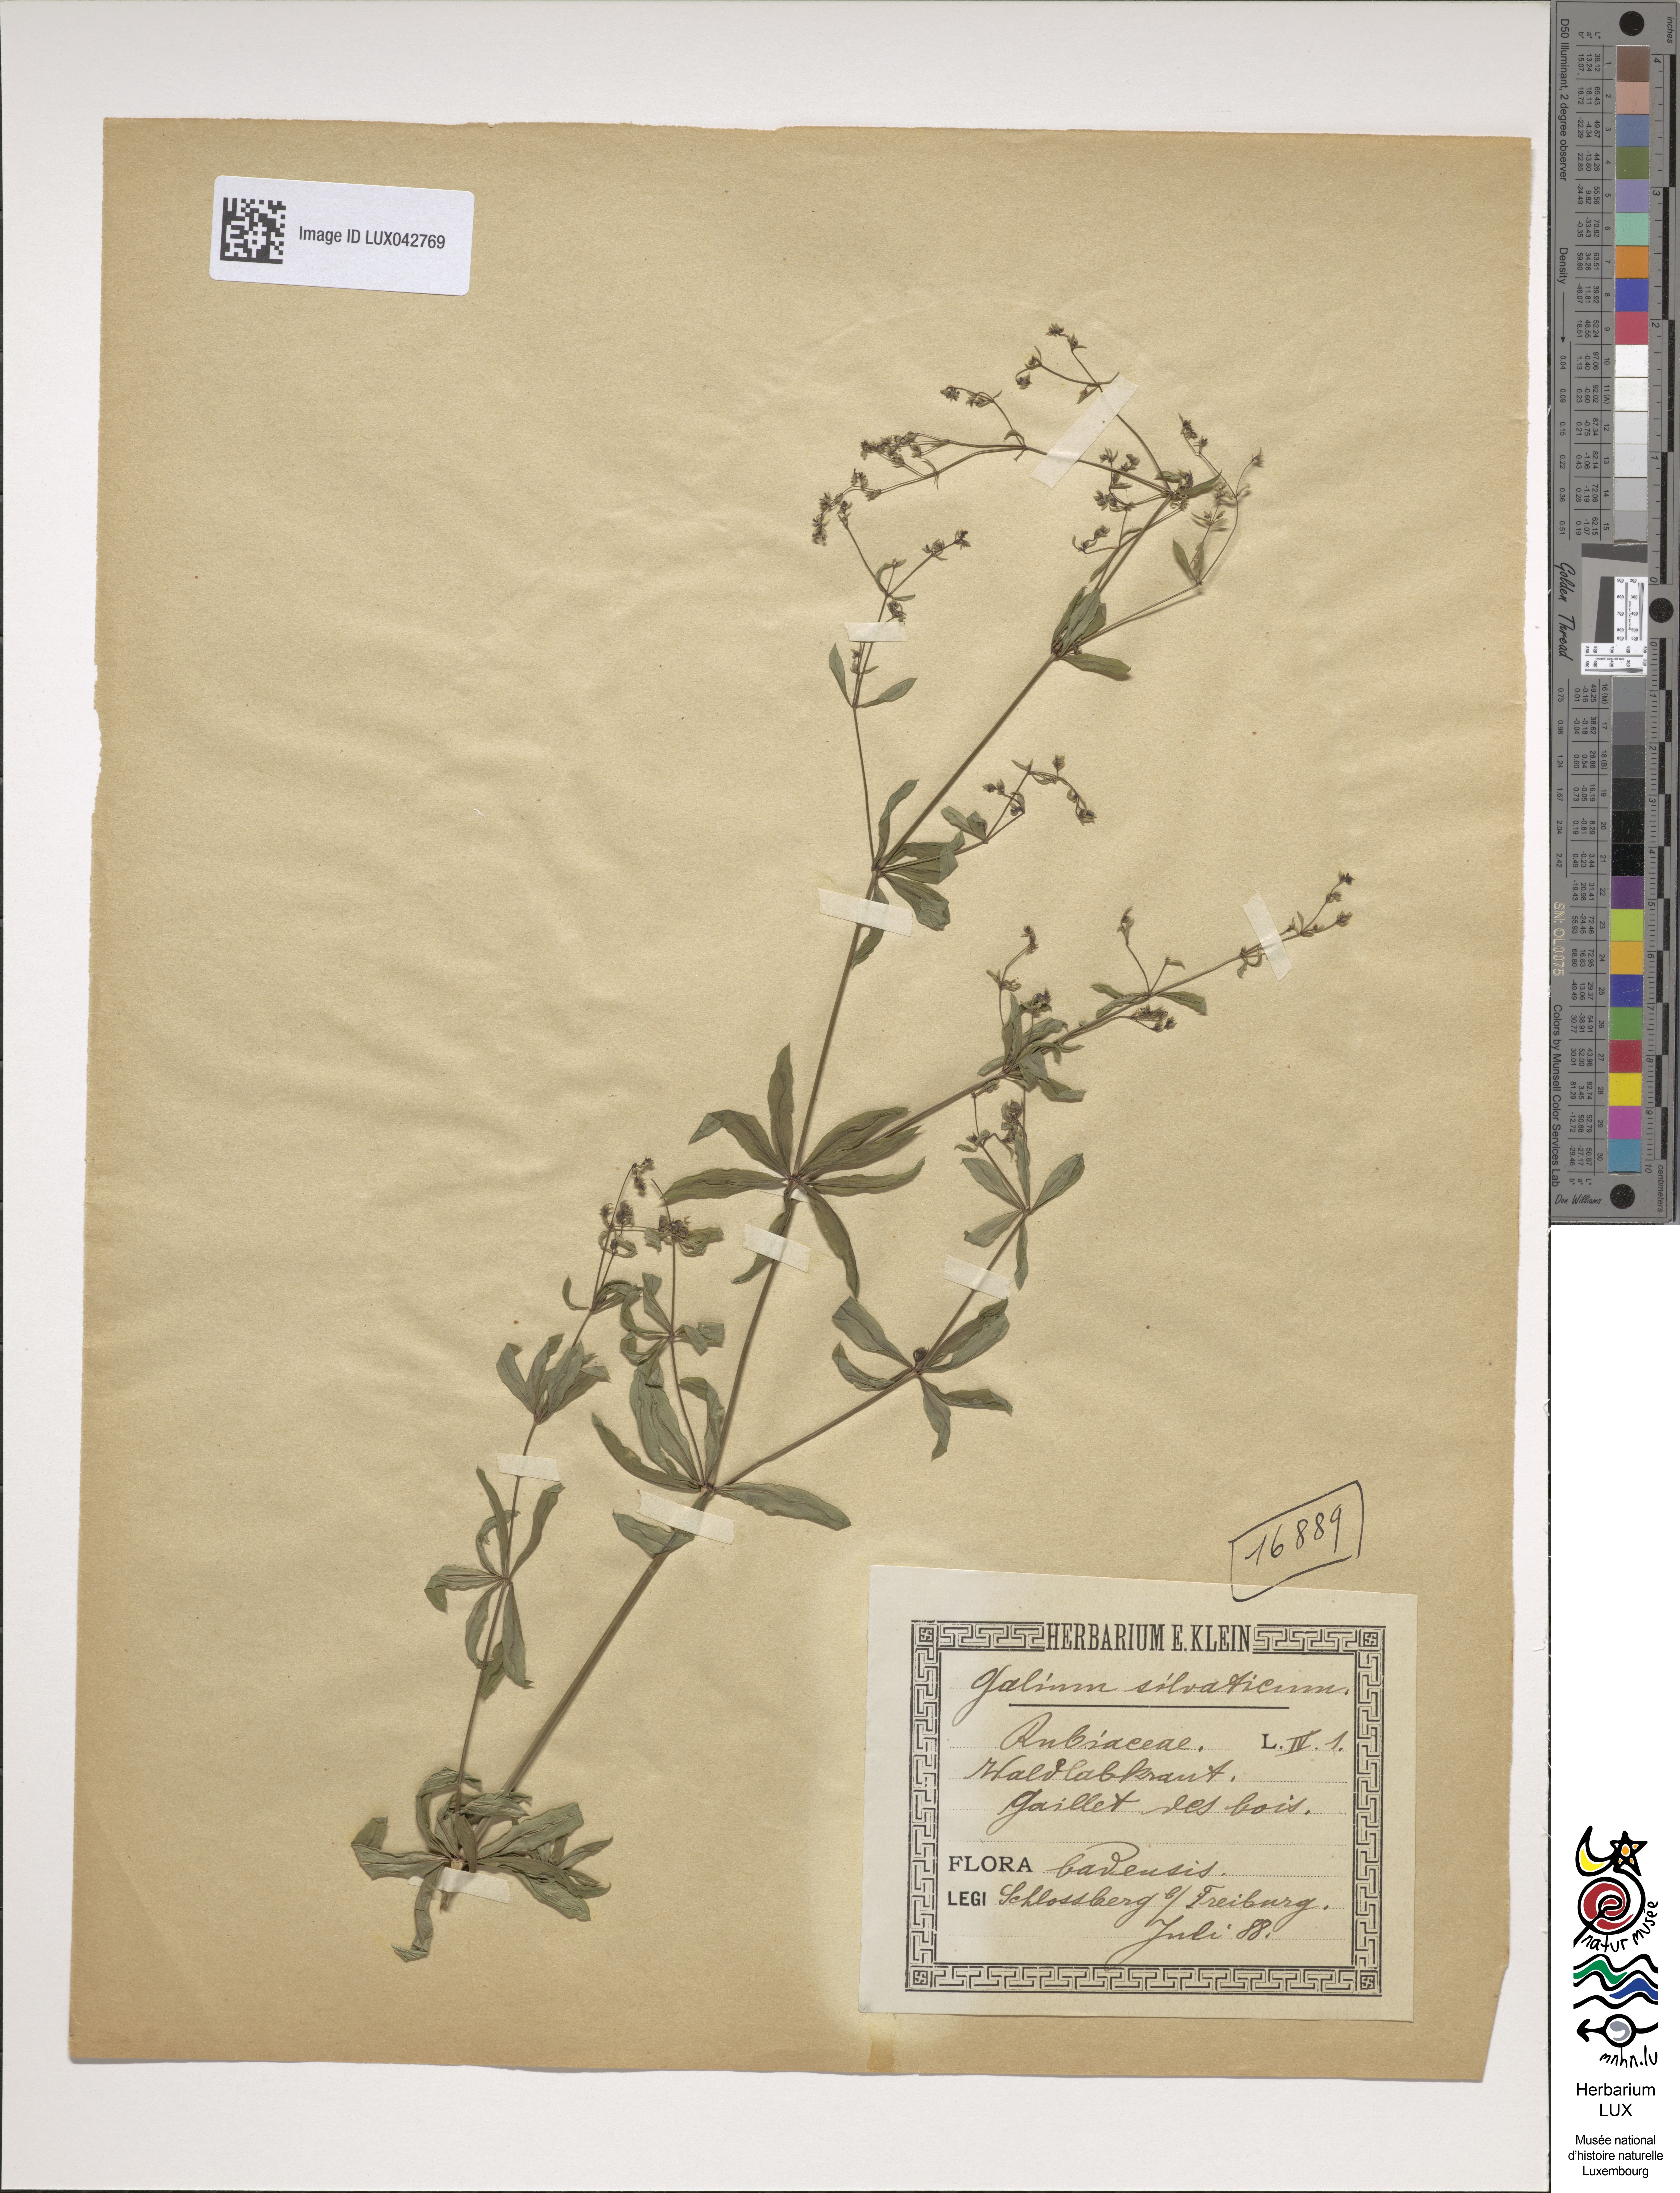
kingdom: Plantae
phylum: Tracheophyta
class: Magnoliopsida
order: Gentianales
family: Rubiaceae
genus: Galium
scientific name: Galium sylvaticum
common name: Wood bedstraw
